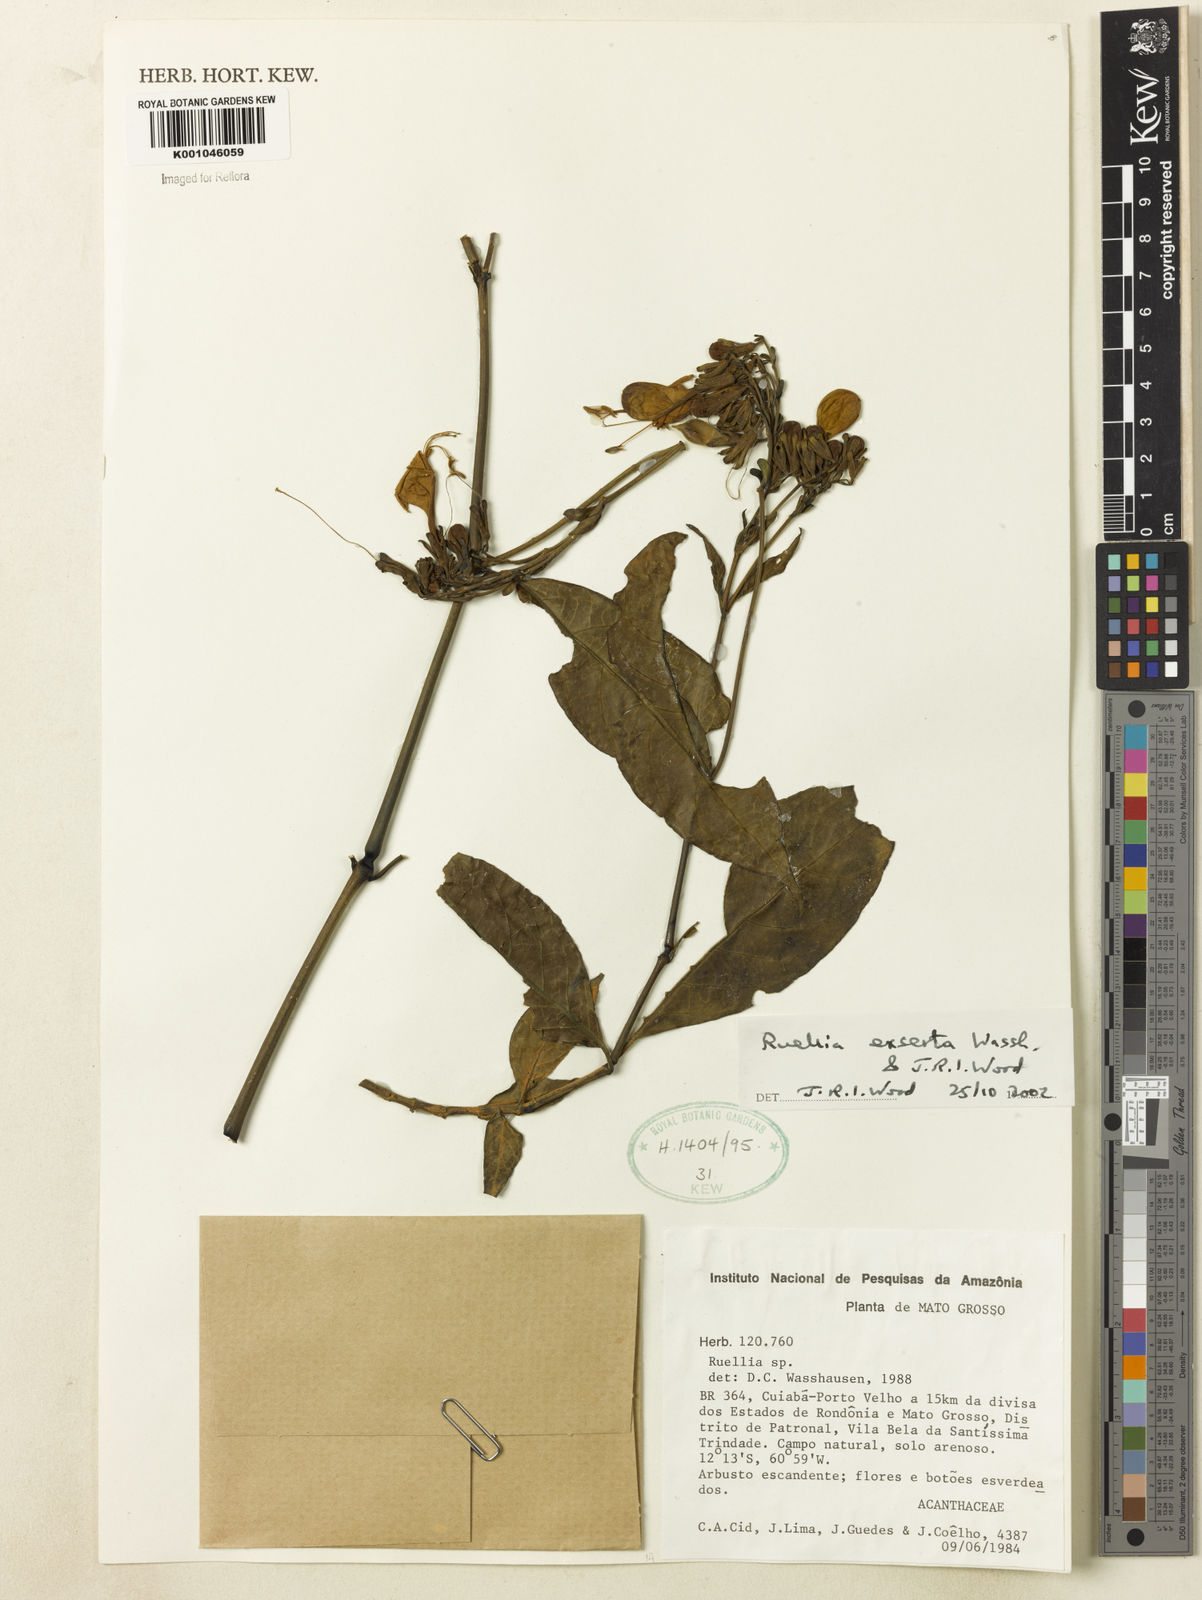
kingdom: Plantae
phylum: Tracheophyta
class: Magnoliopsida
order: Lamiales
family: Acanthaceae
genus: Ruellia
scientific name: Ruellia exserta
